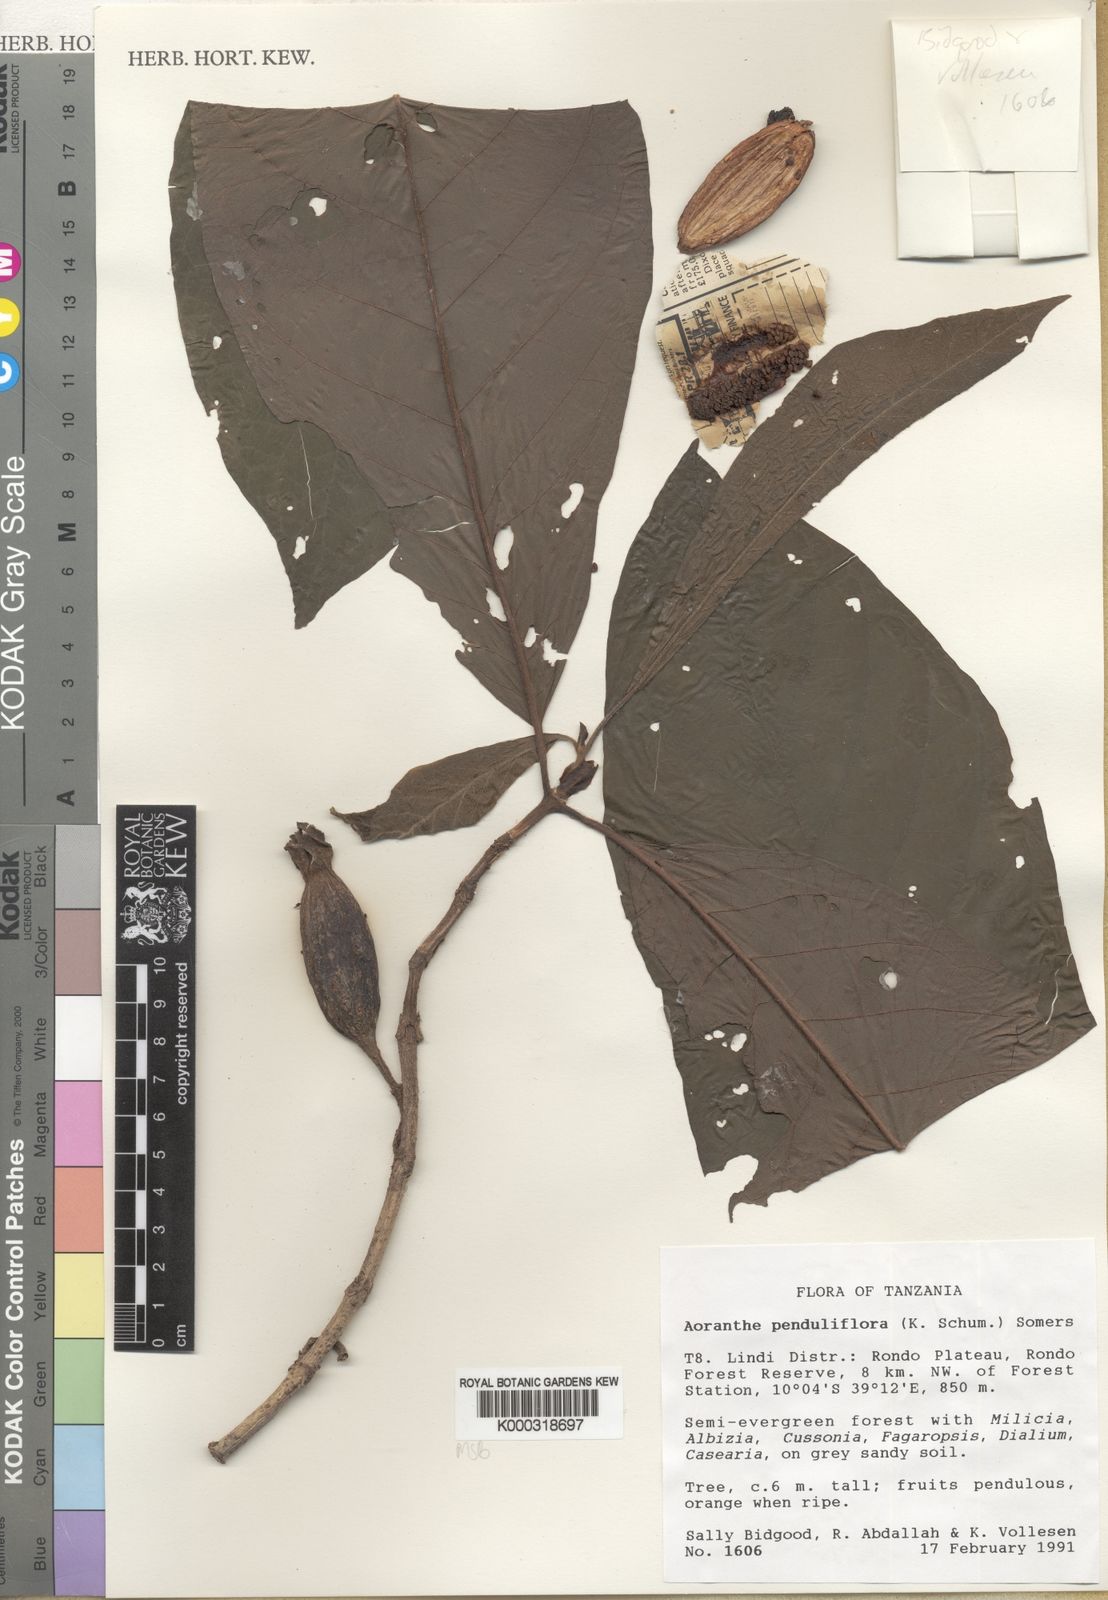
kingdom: Plantae
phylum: Tracheophyta
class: Magnoliopsida
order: Gentianales
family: Rubiaceae
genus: Aoranthe
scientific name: Aoranthe penduliflora
